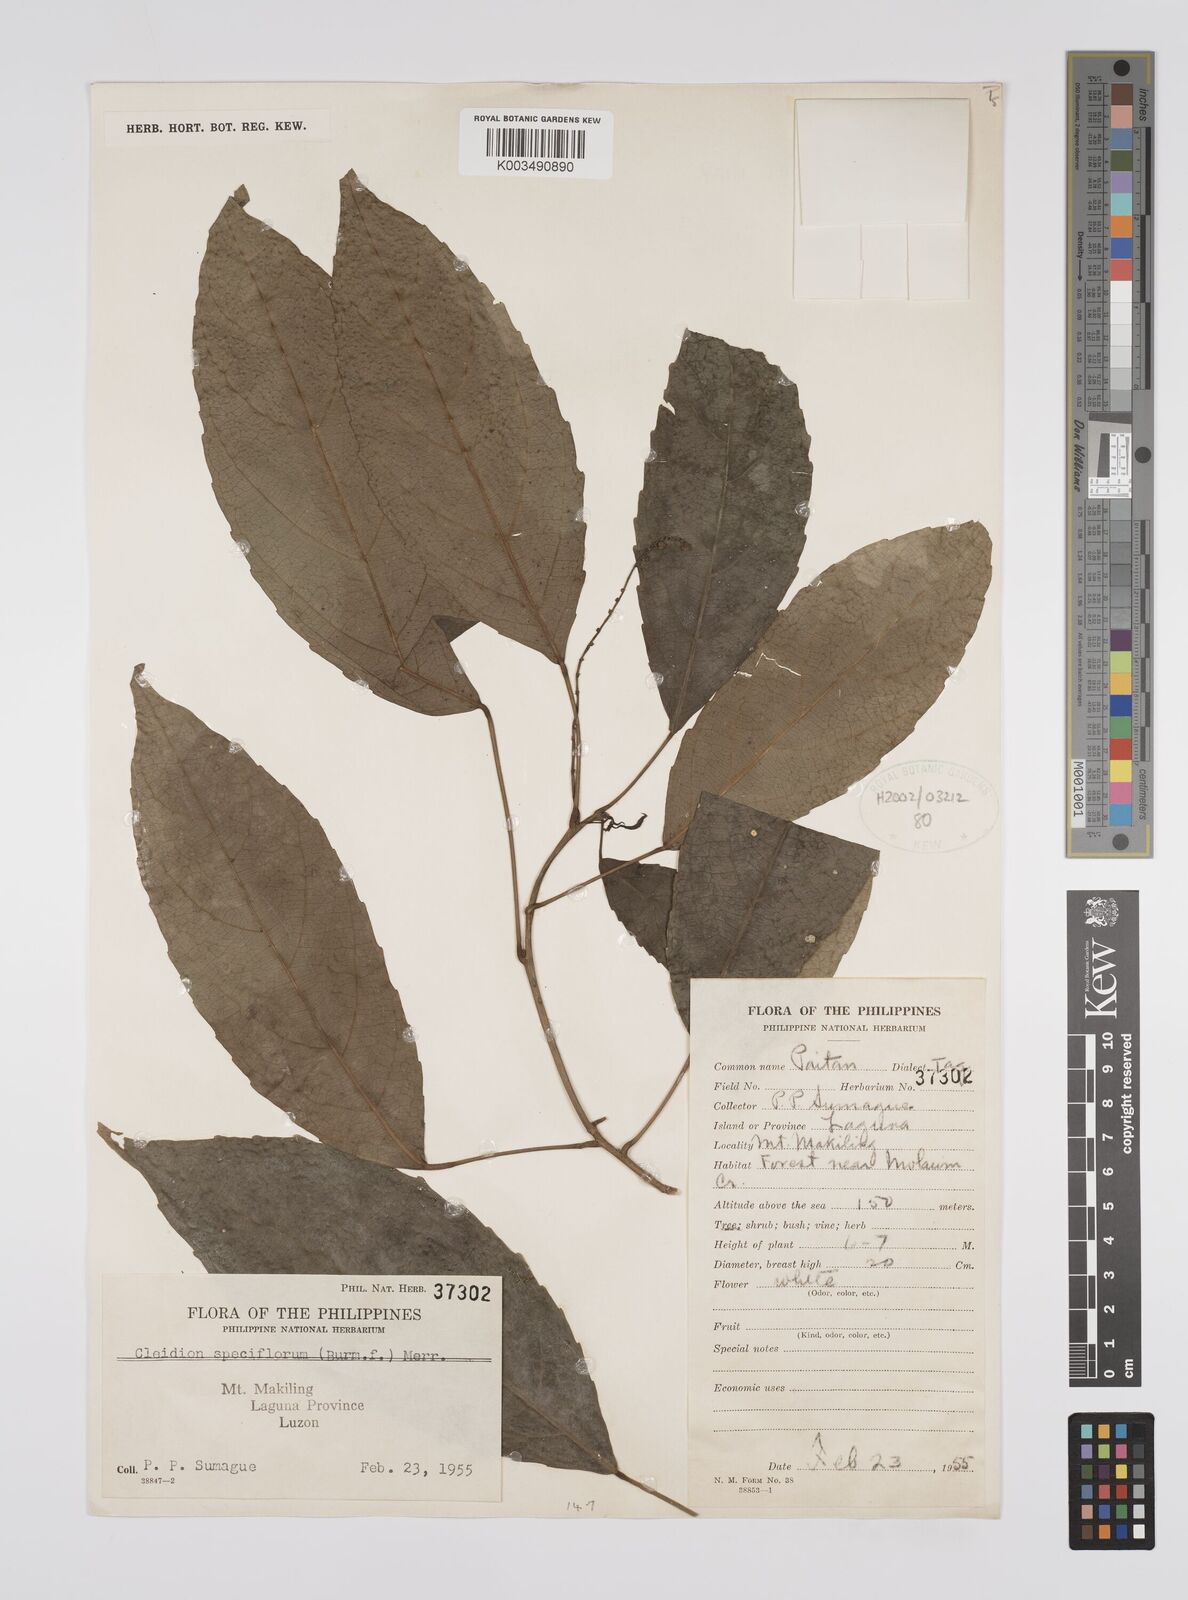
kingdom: Plantae
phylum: Tracheophyta
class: Magnoliopsida
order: Malpighiales
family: Euphorbiaceae
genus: Cleidion
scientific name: Cleidion javanicum
